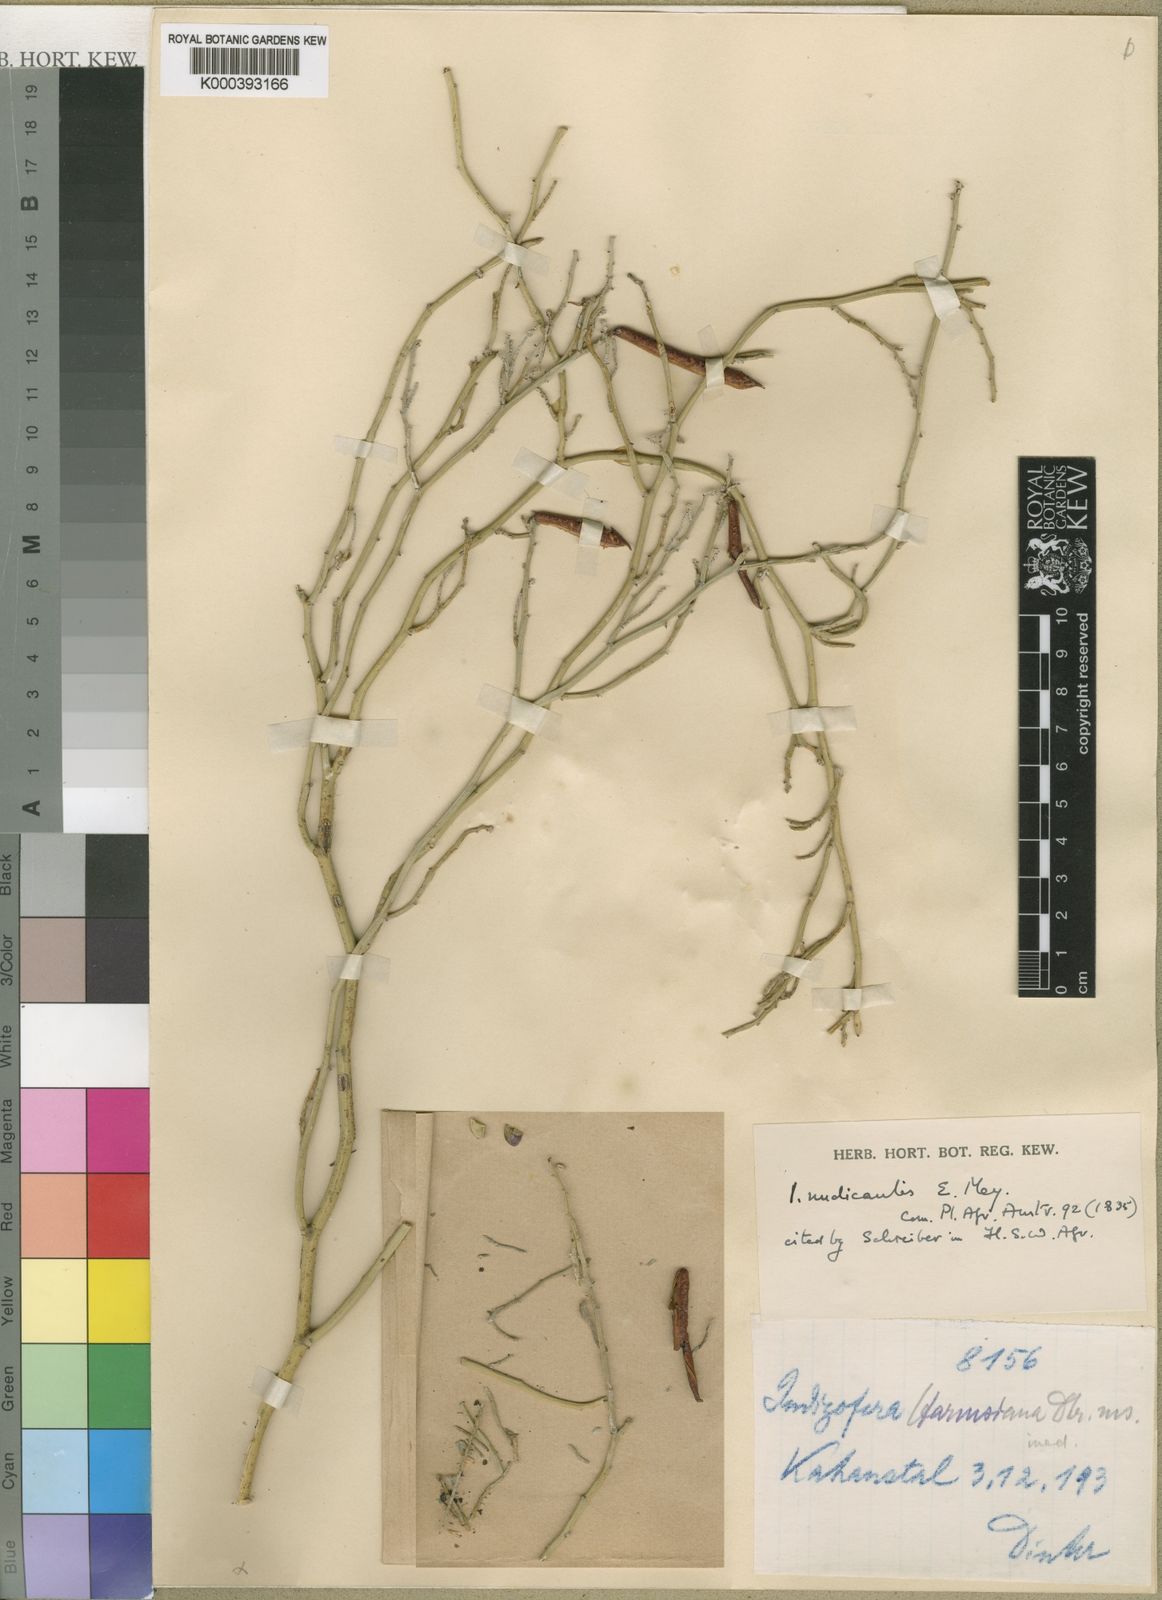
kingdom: Plantae
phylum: Tracheophyta
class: Magnoliopsida
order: Fabales
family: Fabaceae
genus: Indigofera
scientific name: Indigofera
